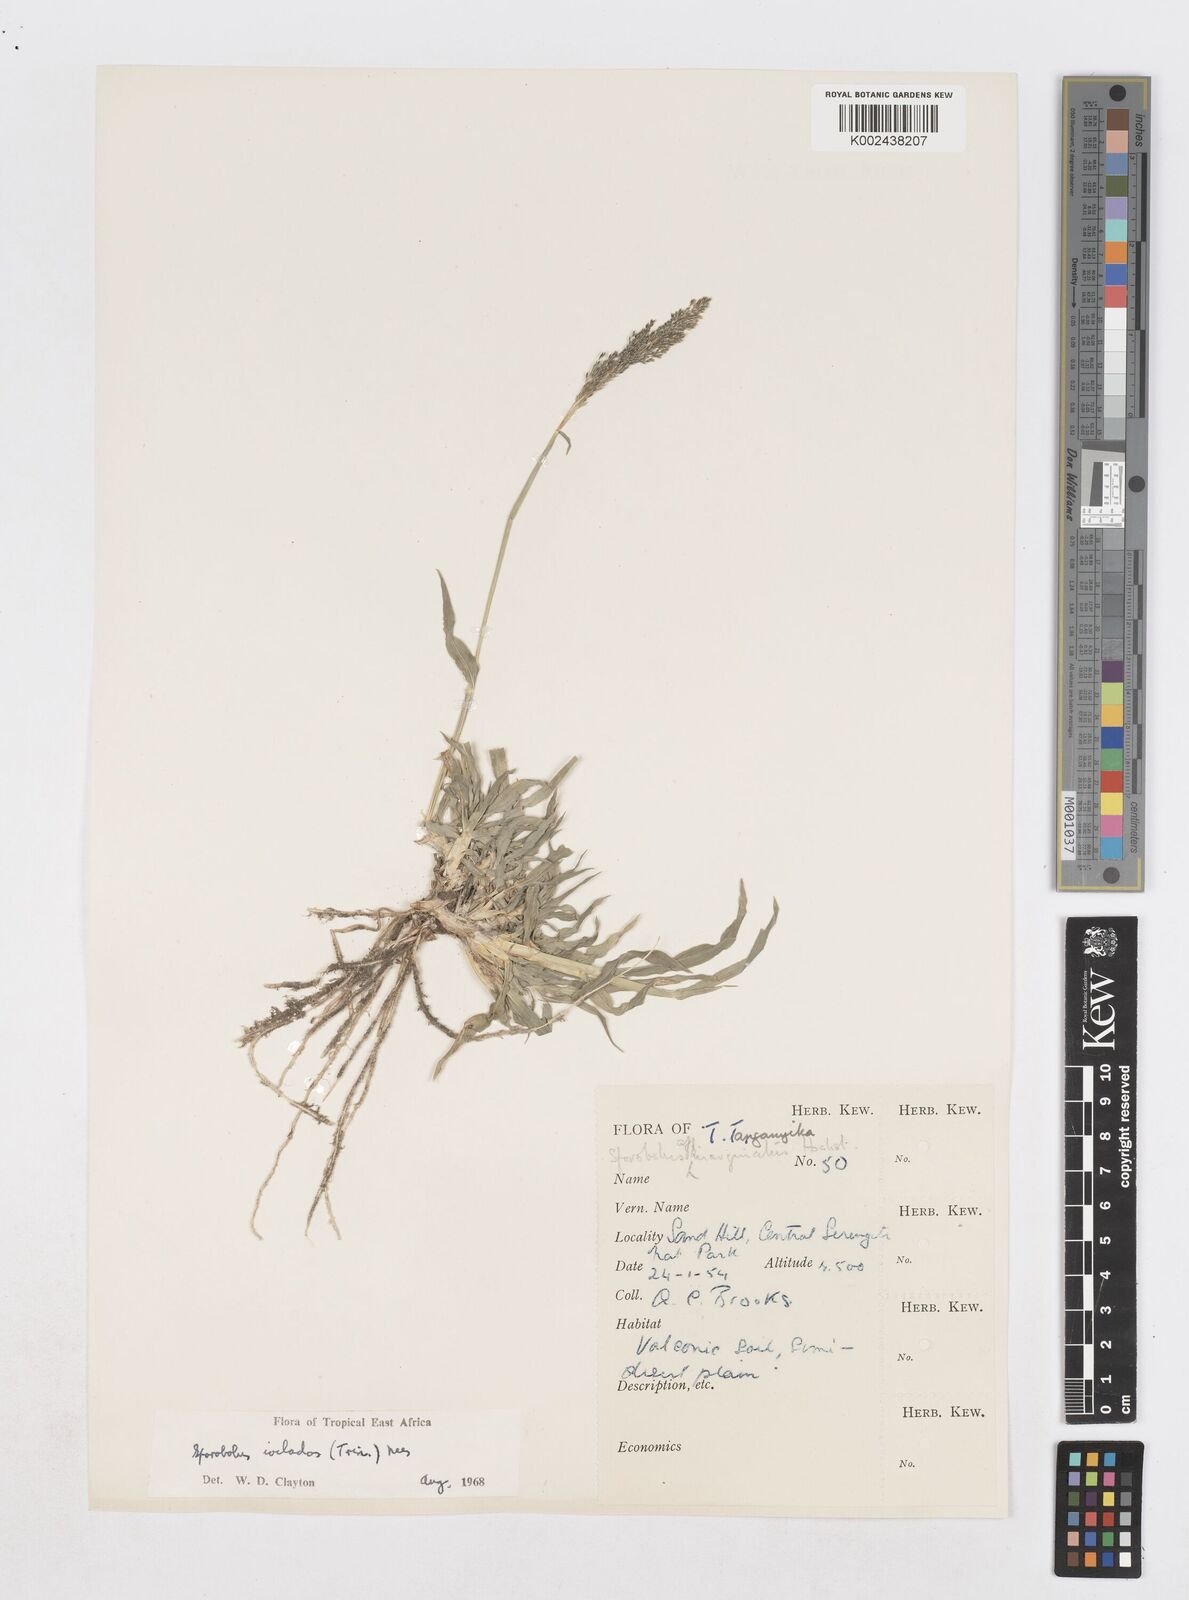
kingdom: Plantae
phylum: Tracheophyta
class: Liliopsida
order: Poales
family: Poaceae
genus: Sporobolus
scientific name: Sporobolus ioclados
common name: Pan dropseed
